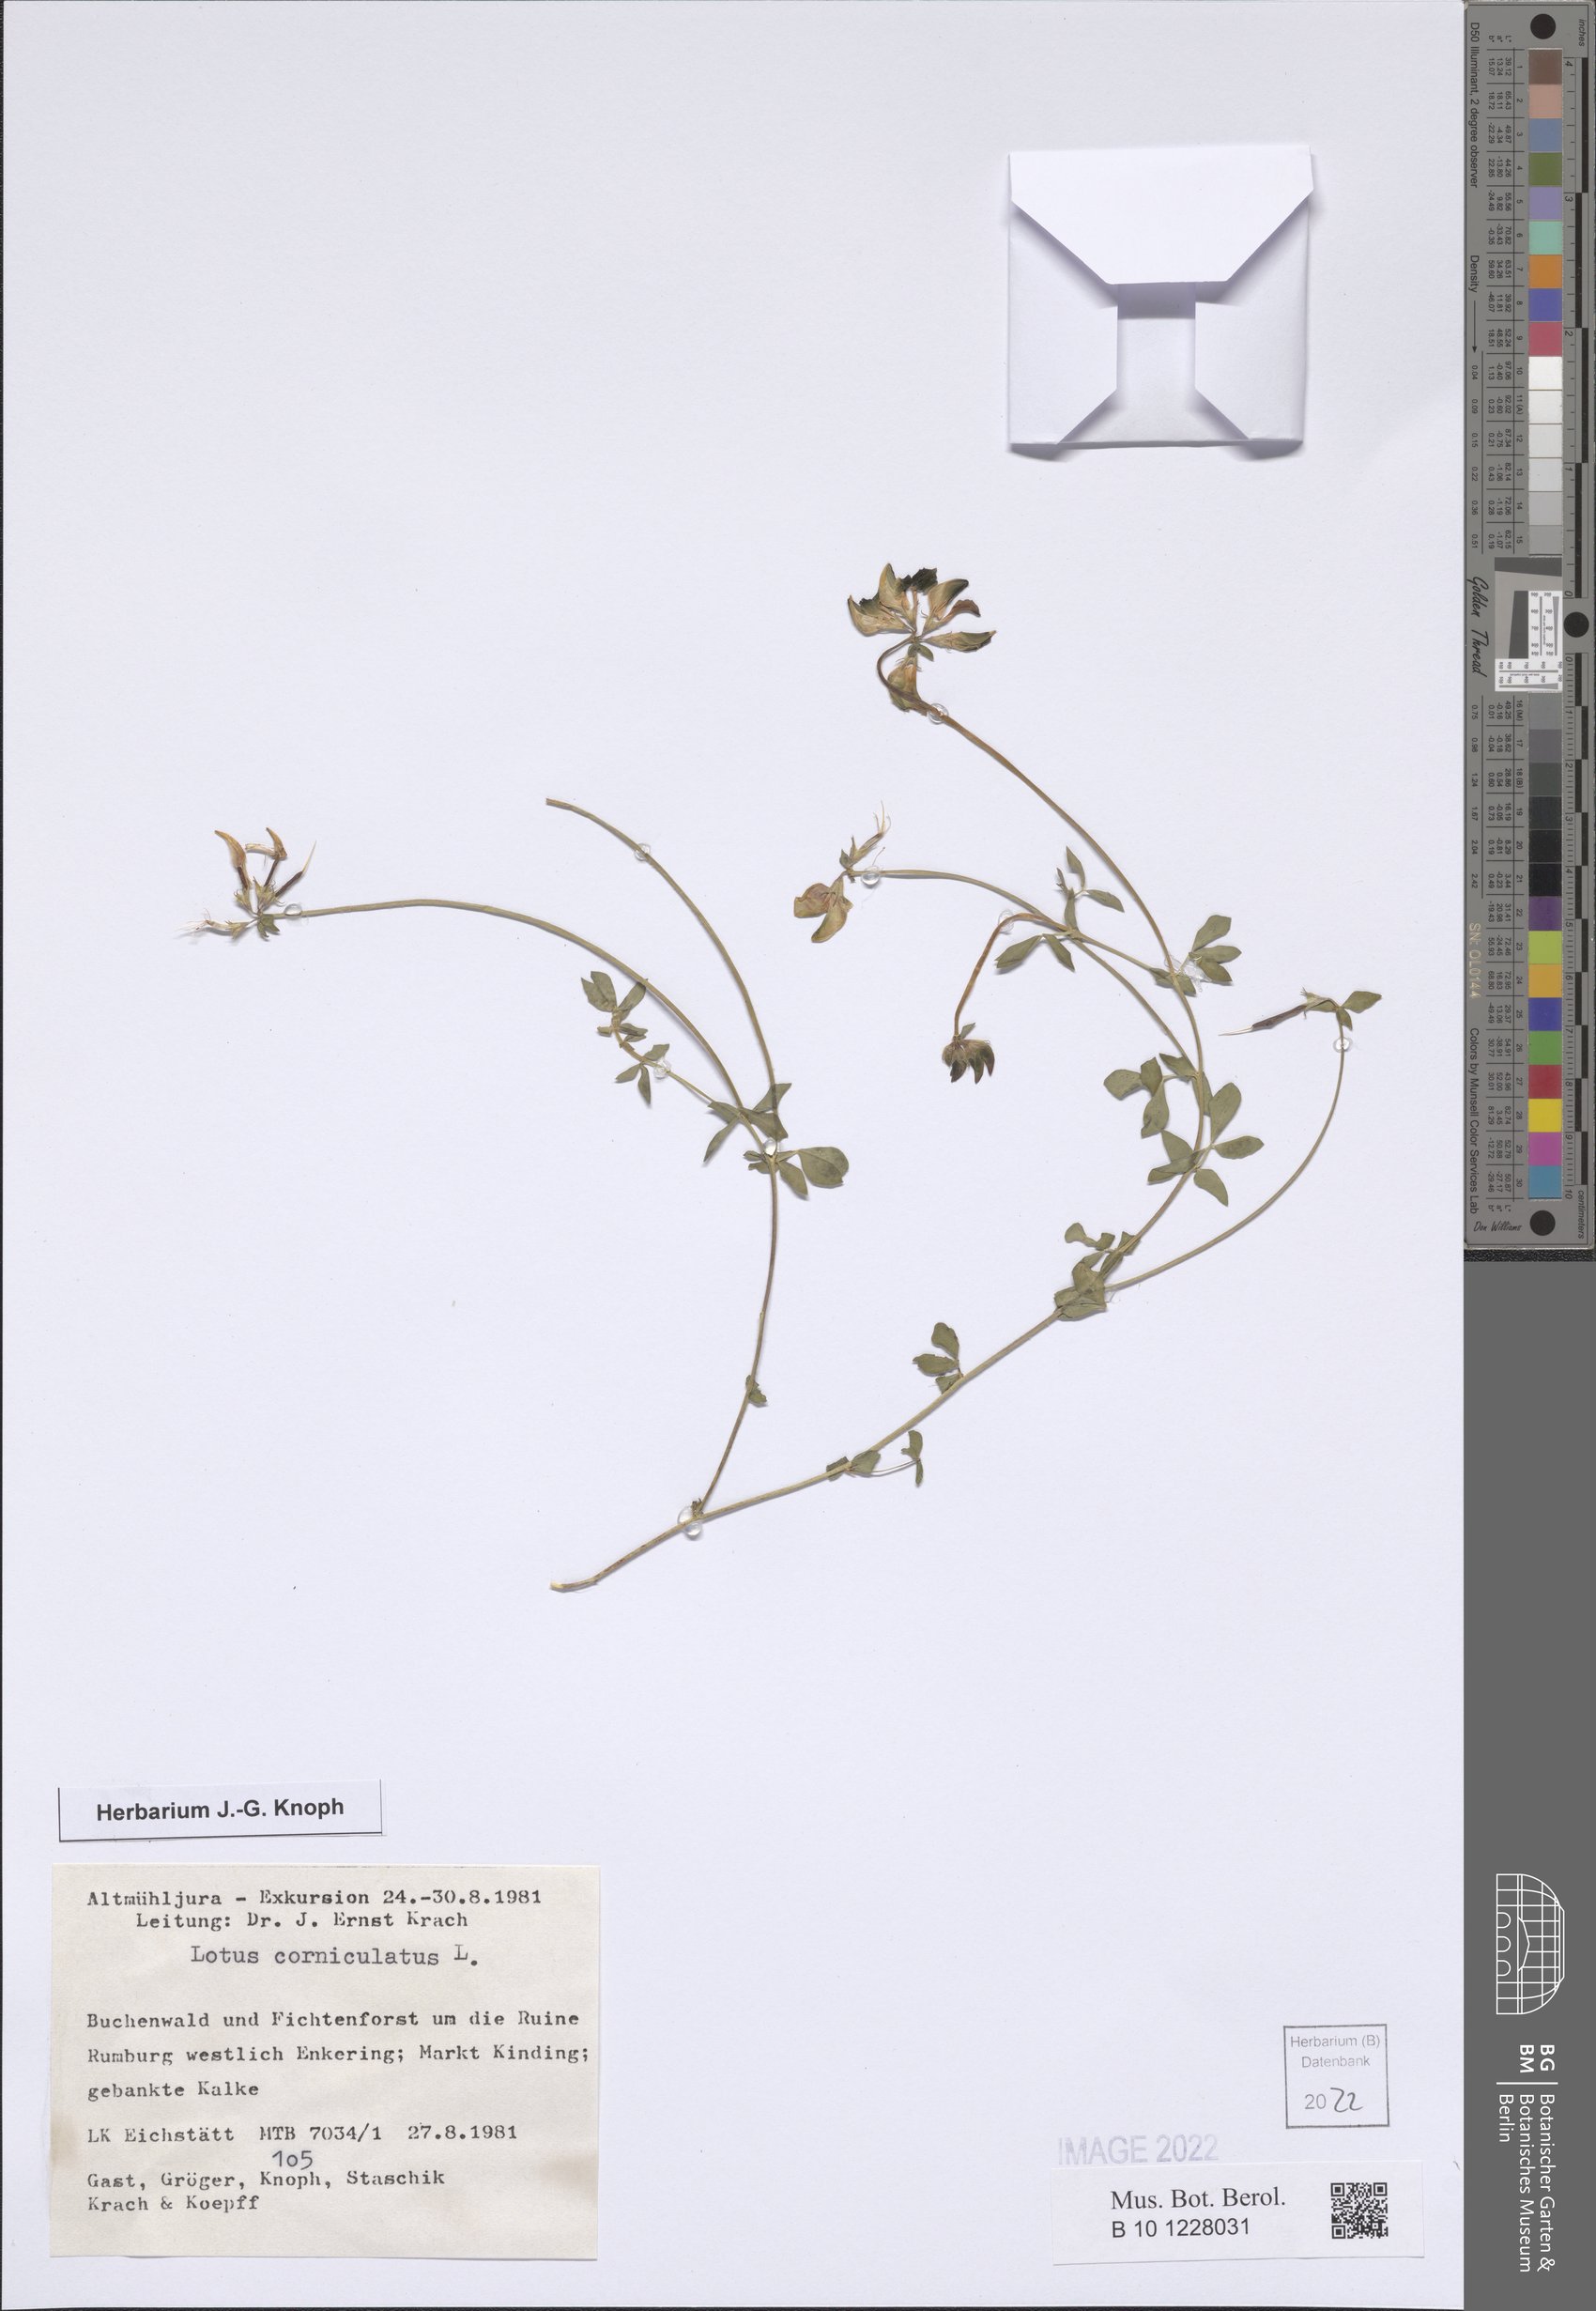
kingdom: Plantae
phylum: Tracheophyta
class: Magnoliopsida
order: Fabales
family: Fabaceae
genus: Lotus
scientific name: Lotus corniculatus
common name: Common bird's-foot-trefoil
